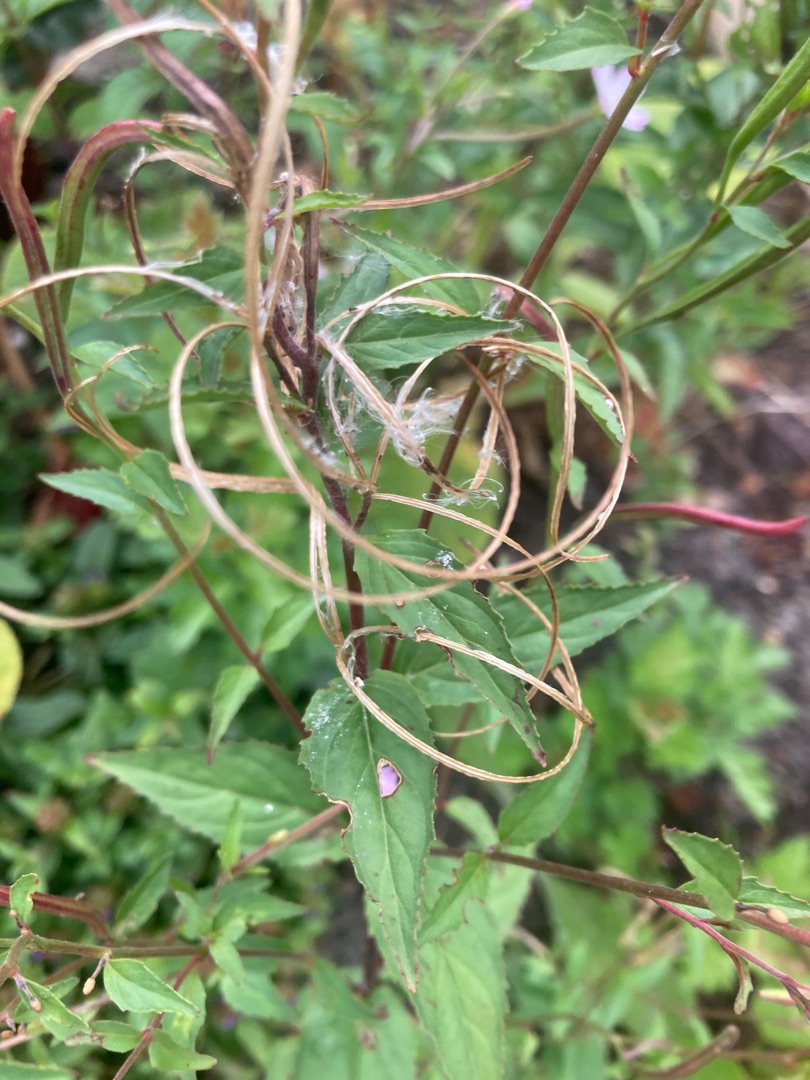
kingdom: Plantae
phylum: Tracheophyta
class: Magnoliopsida
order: Myrtales
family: Onagraceae
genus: Epilobium
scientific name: Epilobium montanum
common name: Glat dueurt
